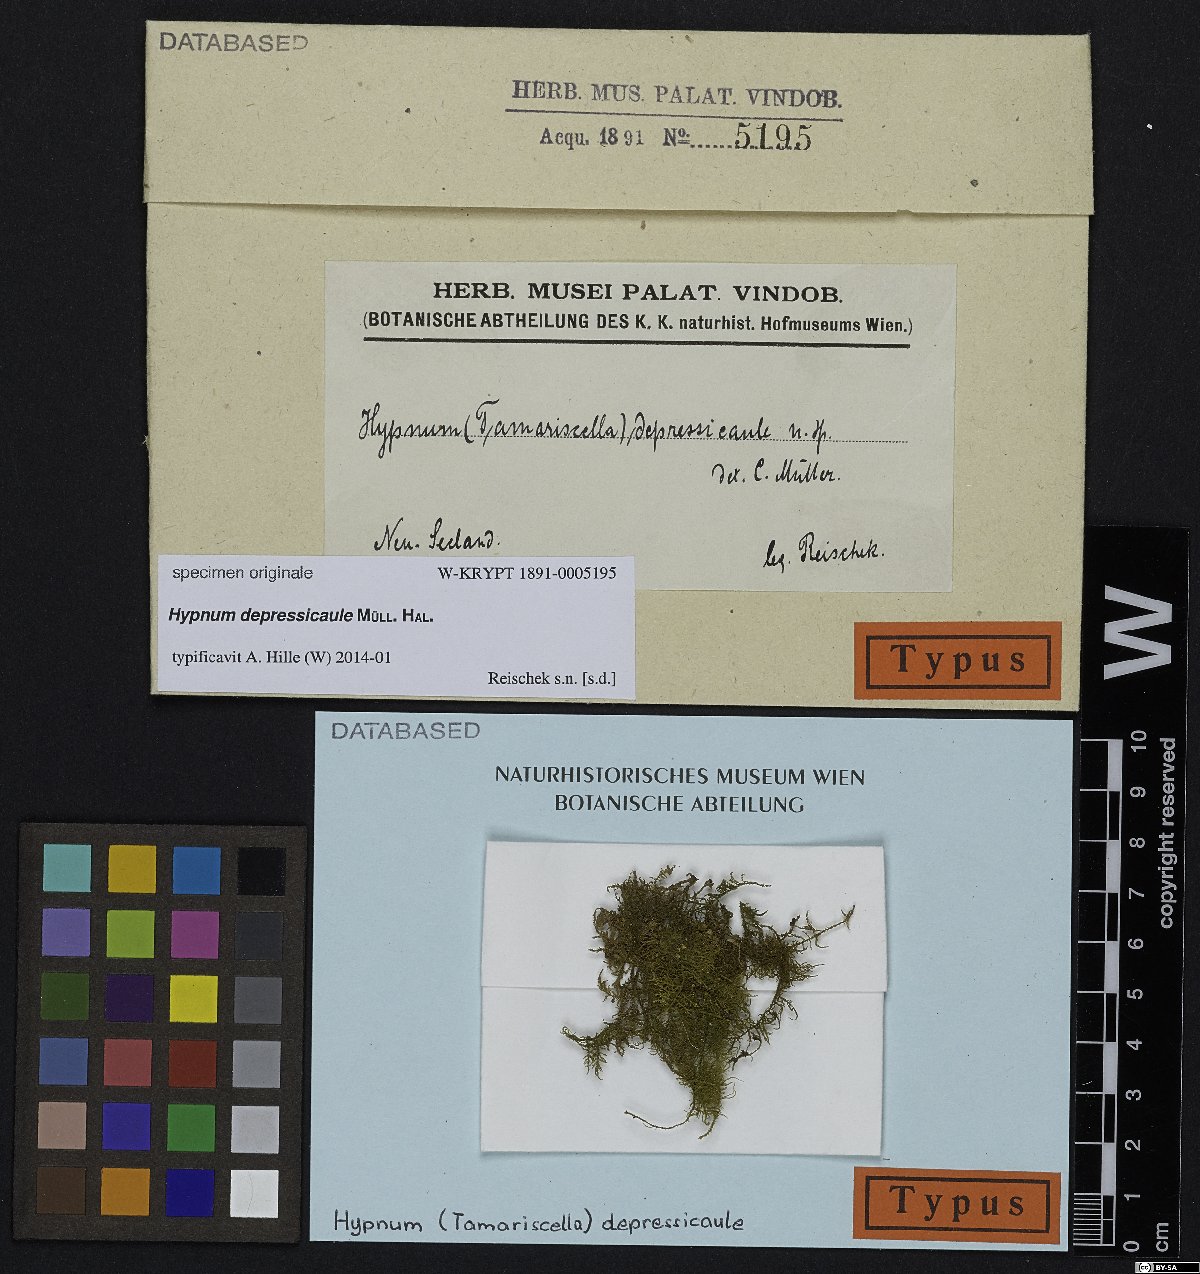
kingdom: Plantae
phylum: Bryophyta
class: Bryopsida
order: Hypnales
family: Hypnaceae
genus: Hypnum
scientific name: Hypnum
